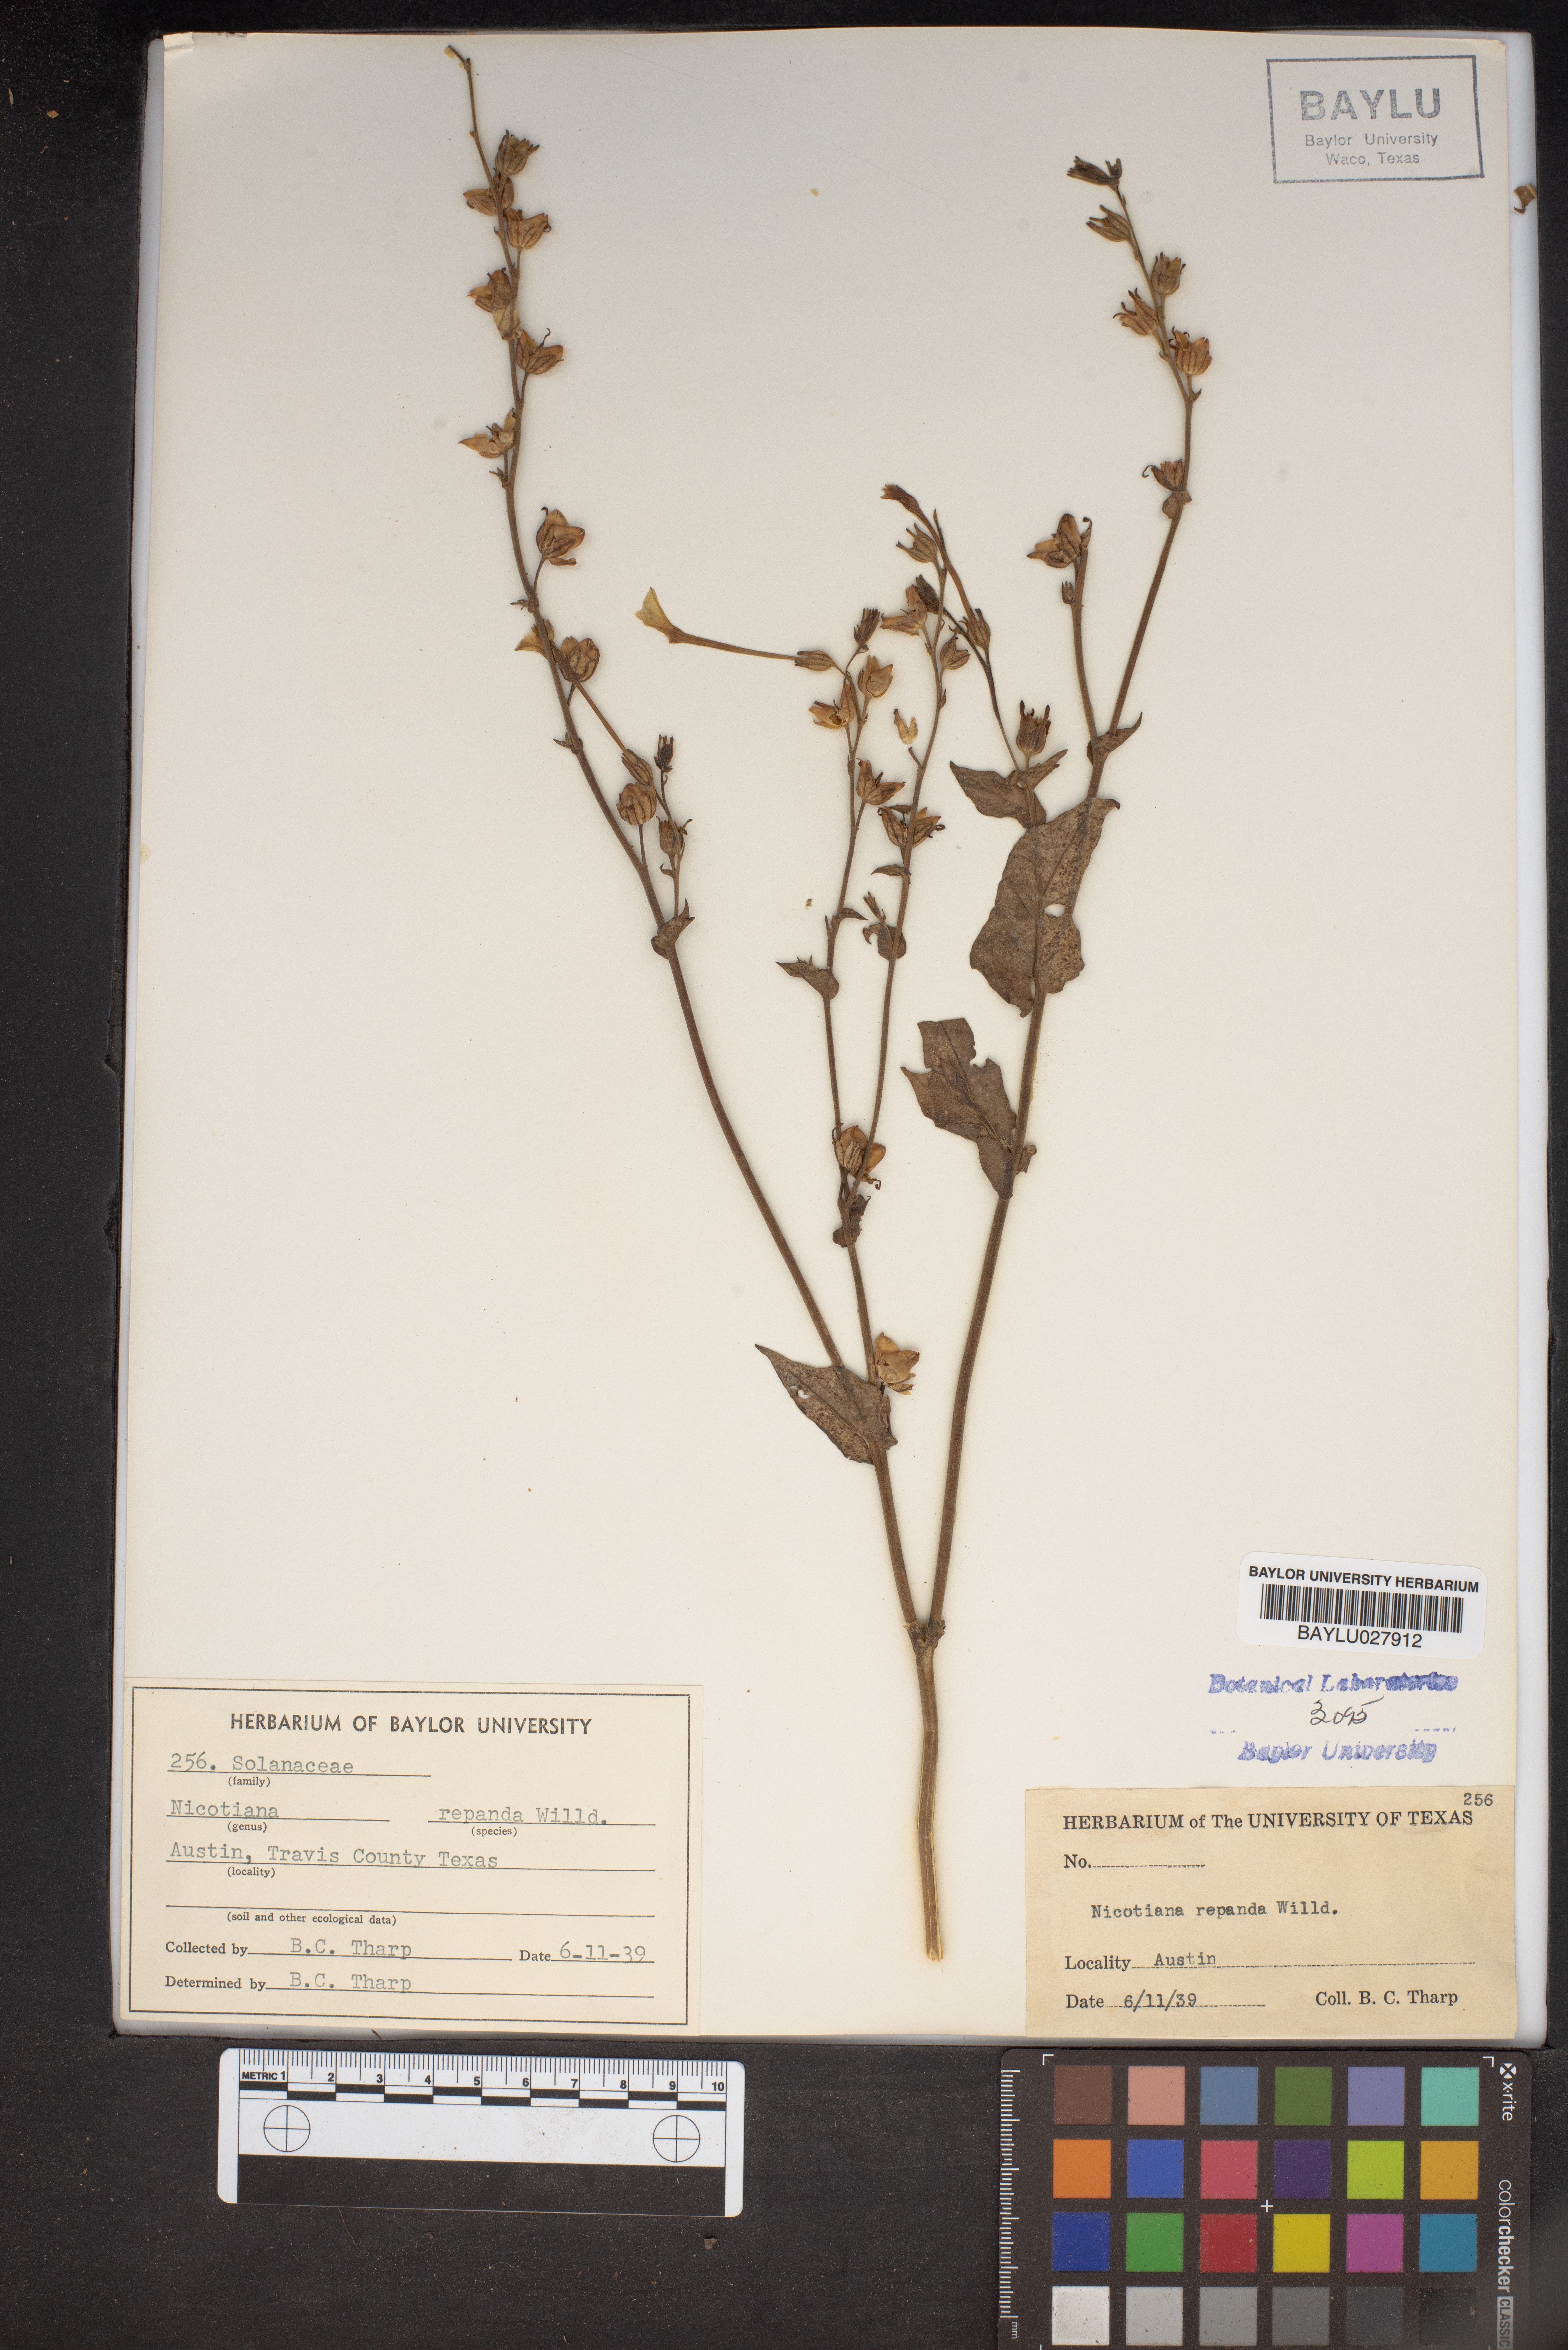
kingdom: Plantae
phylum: Tracheophyta
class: Magnoliopsida
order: Solanales
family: Solanaceae
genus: Nicotiana
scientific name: Nicotiana repanda
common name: Fiddle-leaf tobacco
